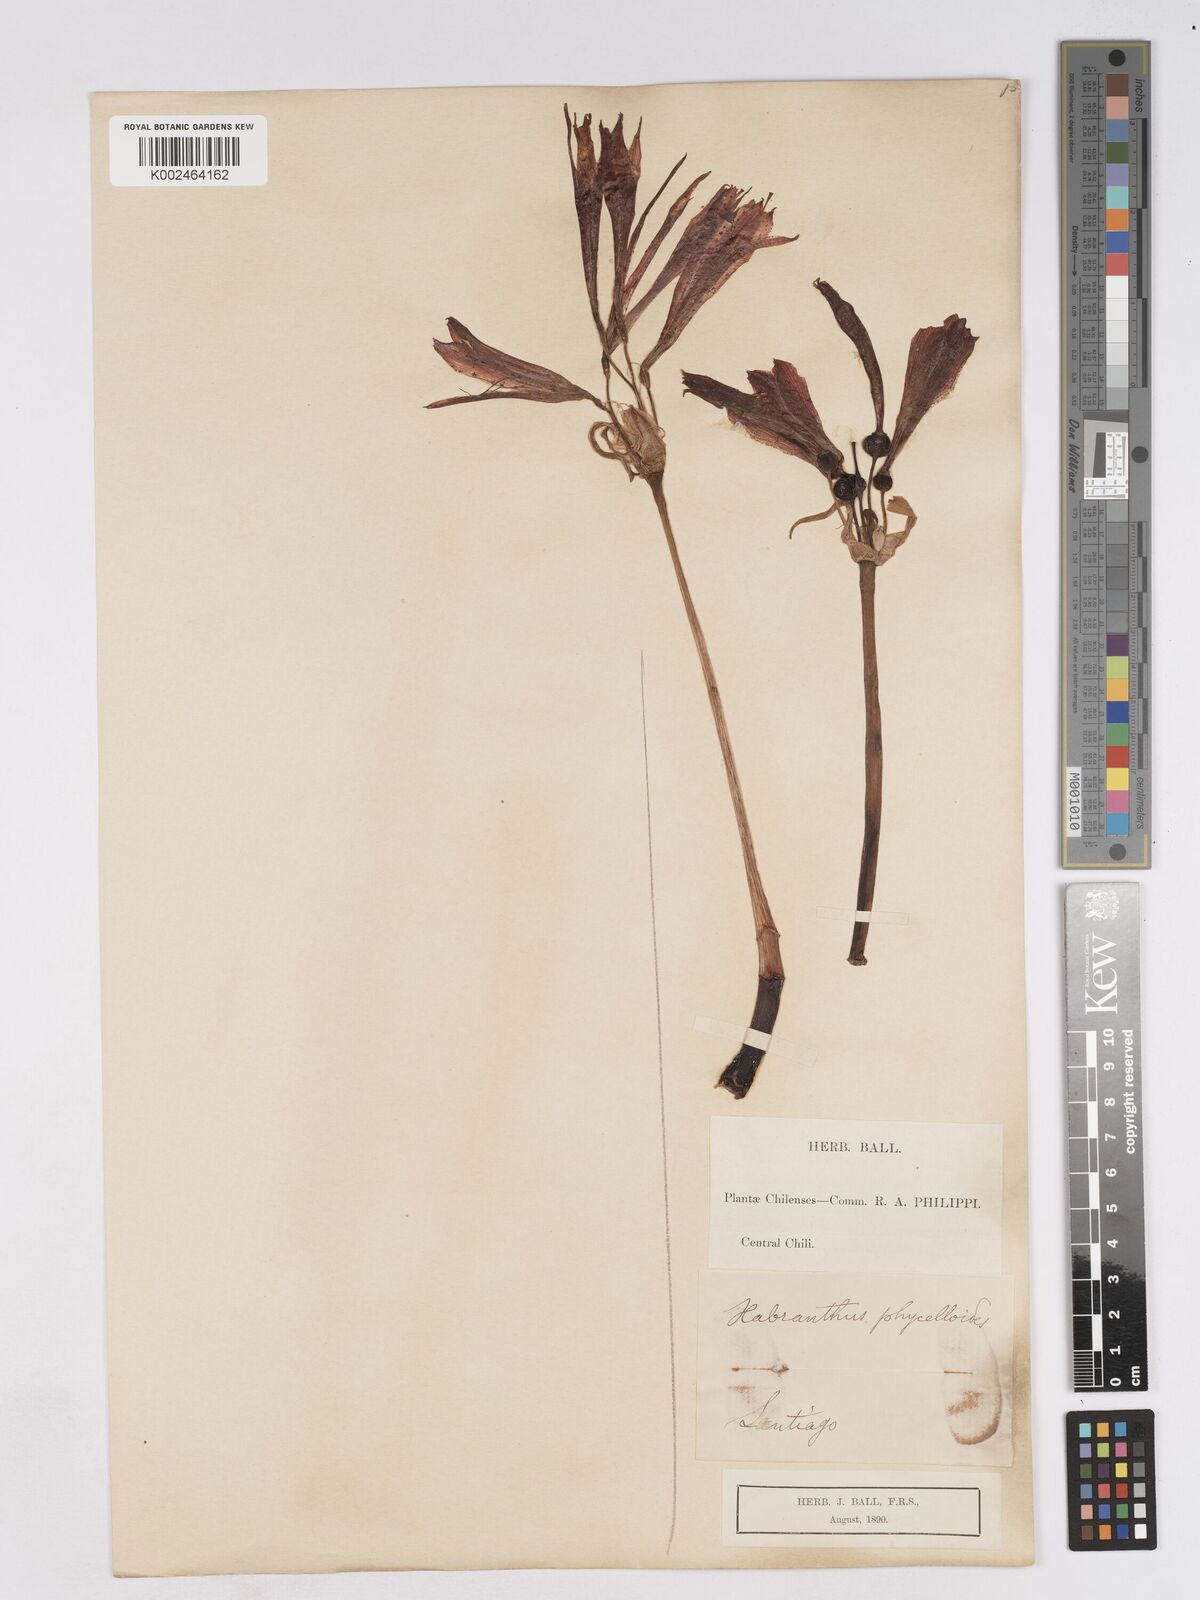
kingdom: Plantae
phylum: Tracheophyta
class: Liliopsida
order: Asparagales
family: Amaryllidaceae
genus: Zephyranthes
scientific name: Zephyranthes phycelloides
